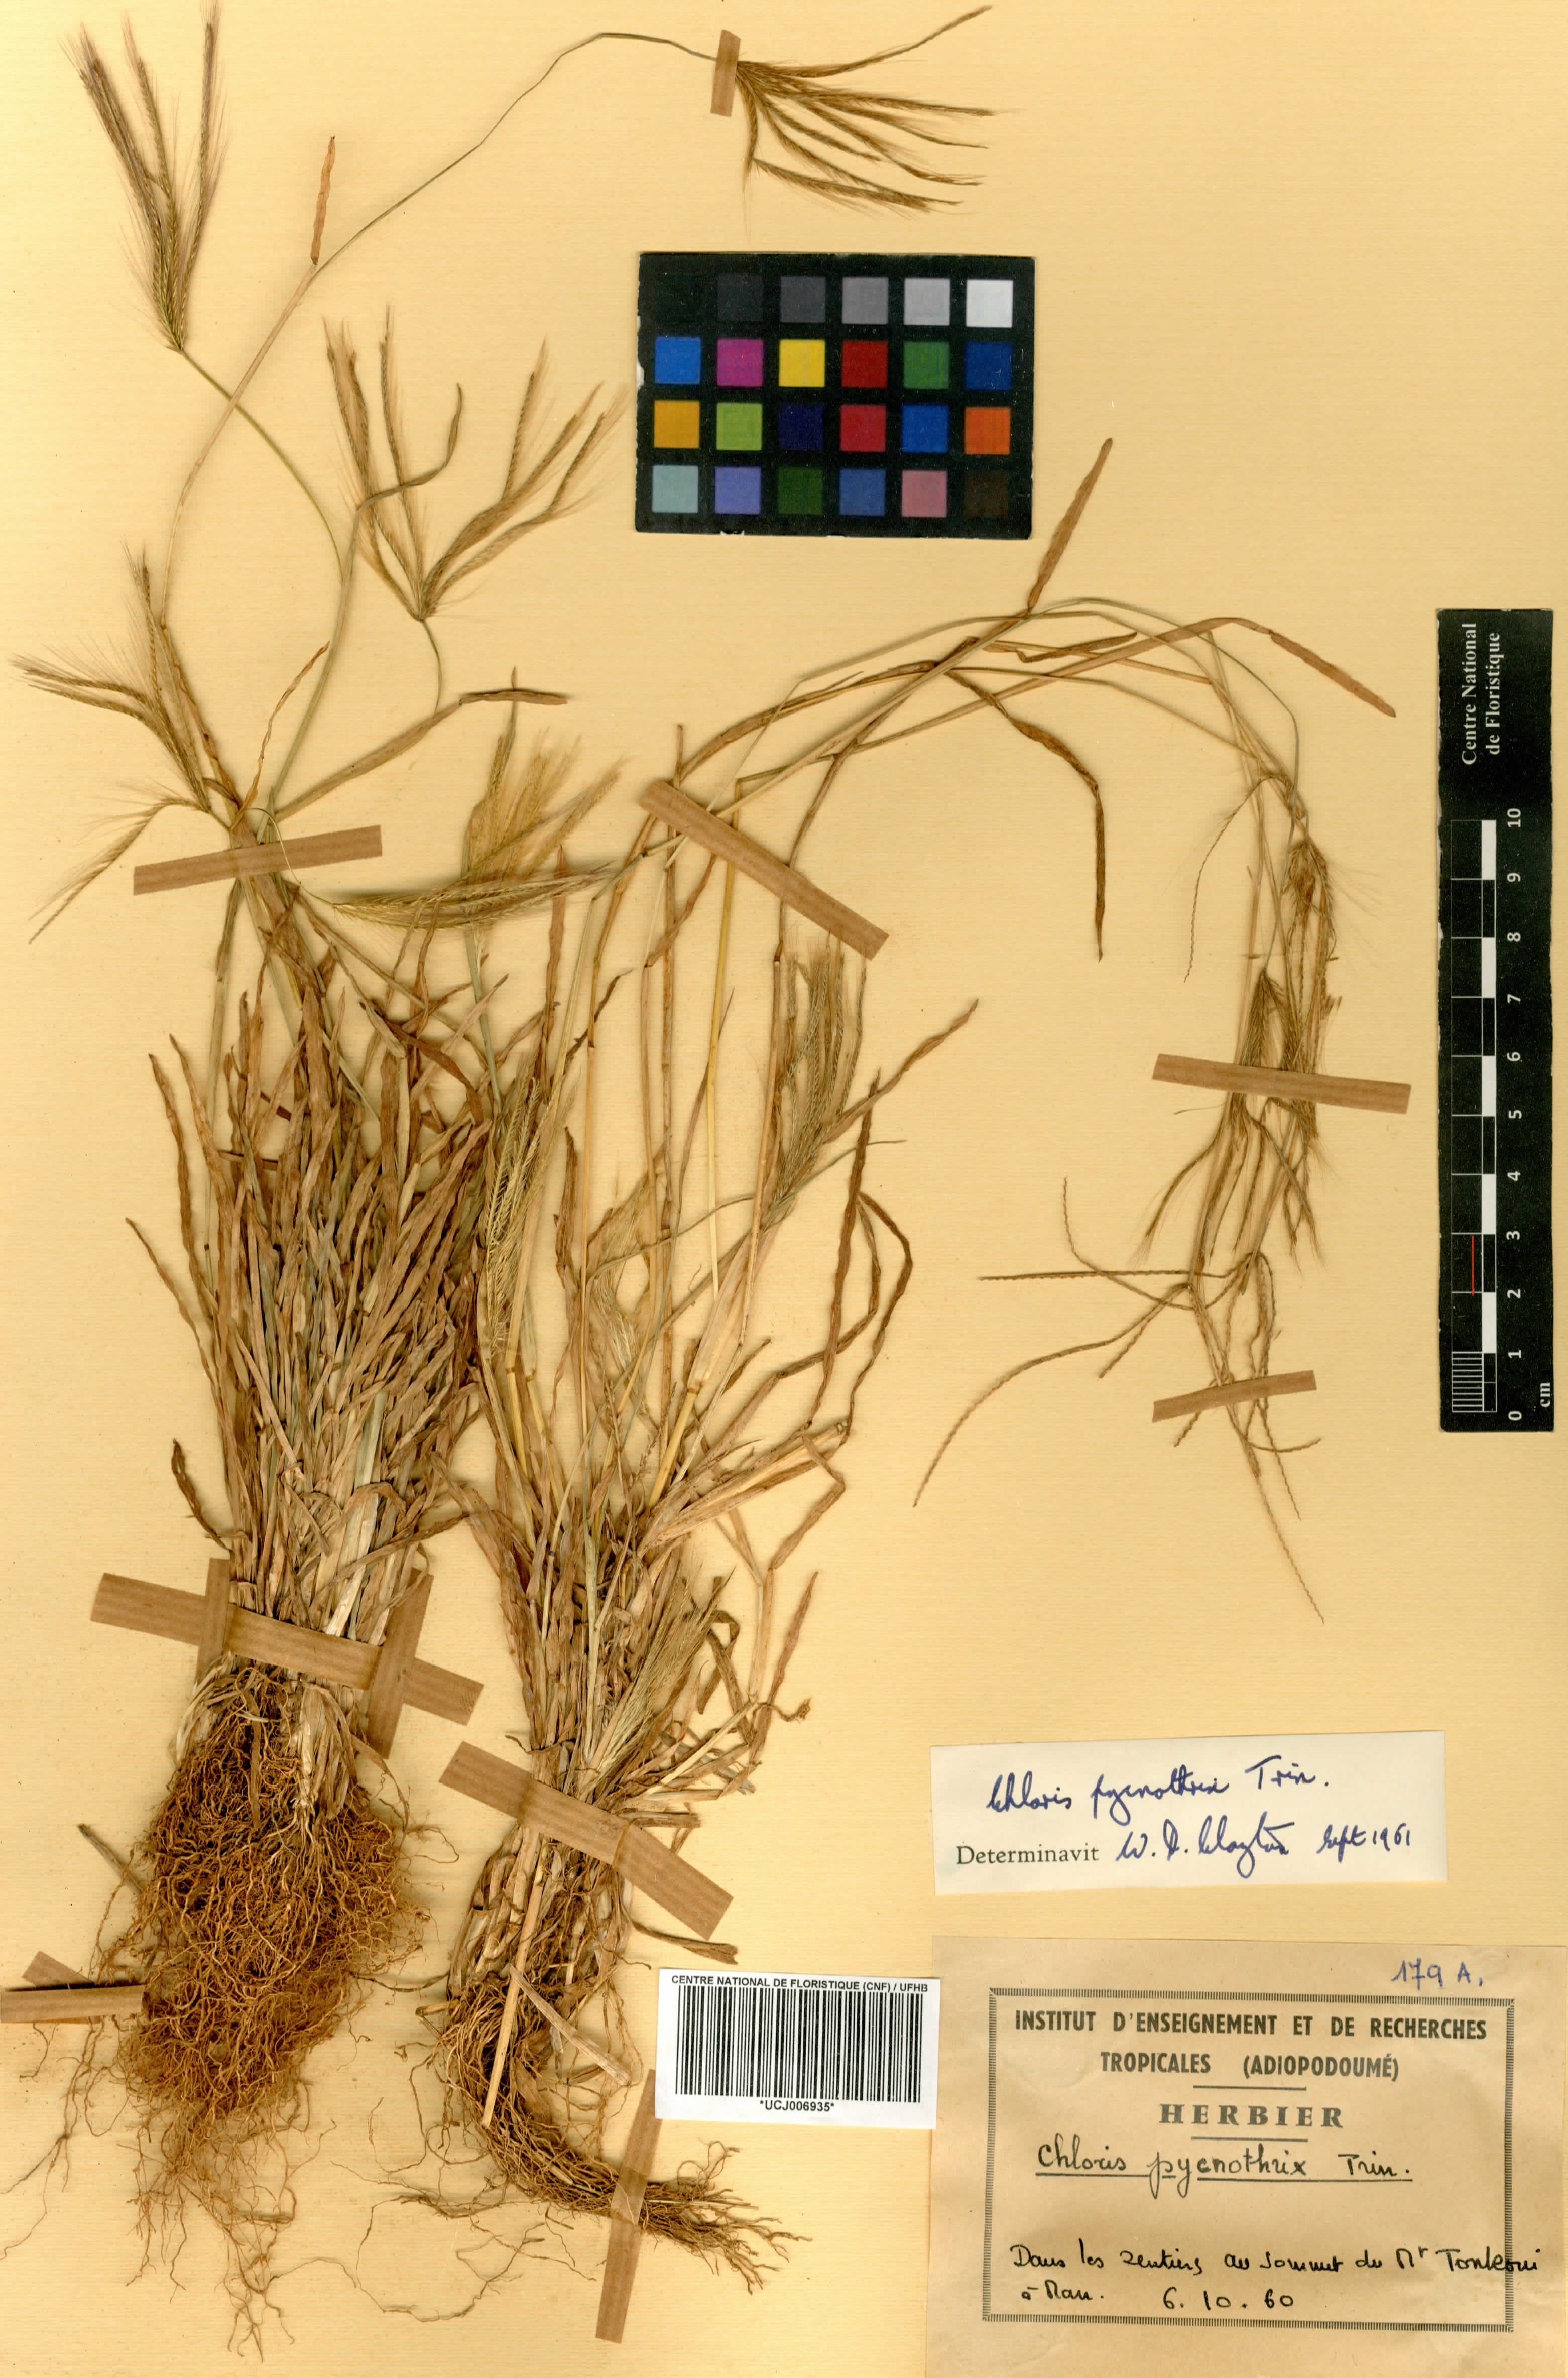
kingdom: Plantae
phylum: Tracheophyta
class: Liliopsida
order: Poales
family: Poaceae
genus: Chloris
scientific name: Chloris pycnothrix
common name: Spiderweb chloris
